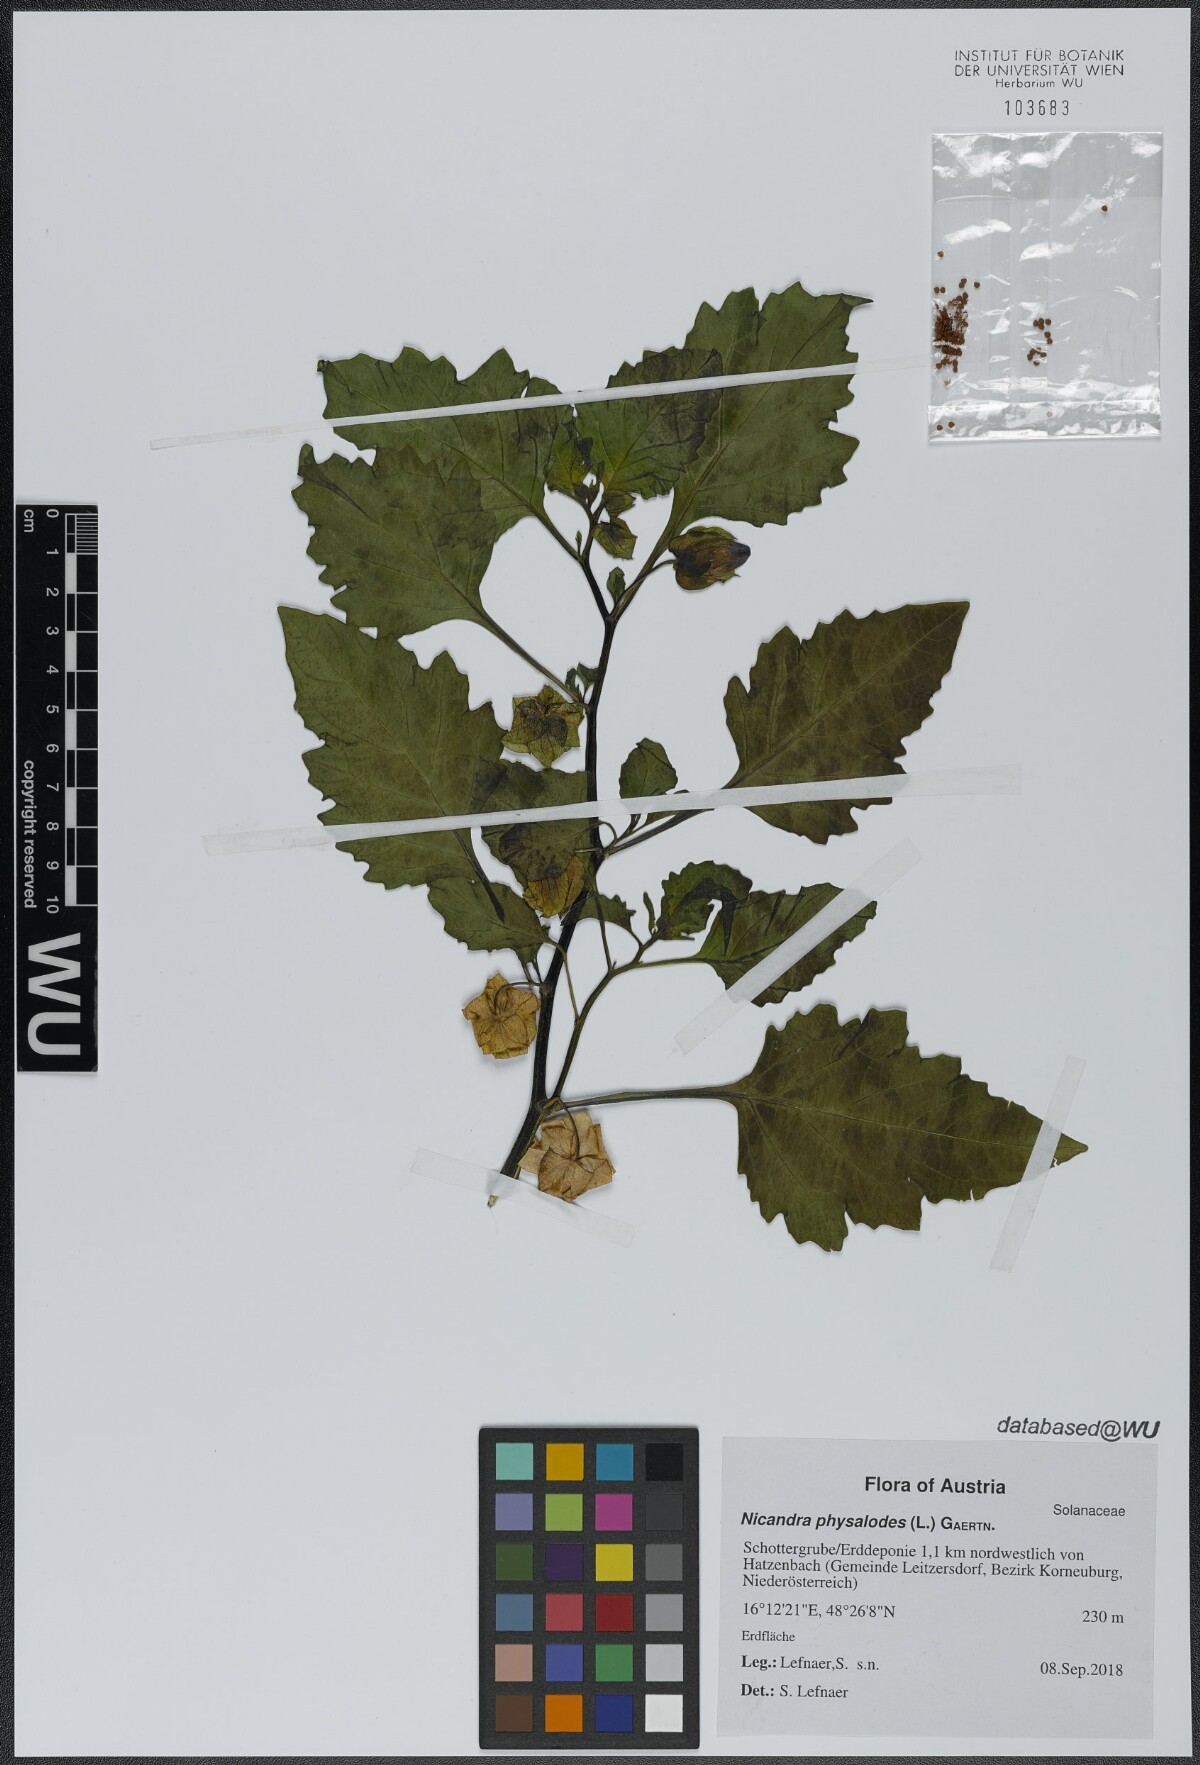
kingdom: Plantae
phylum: Tracheophyta
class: Magnoliopsida
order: Solanales
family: Solanaceae
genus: Nicandra
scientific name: Nicandra physalodes
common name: Apple-of-peru
